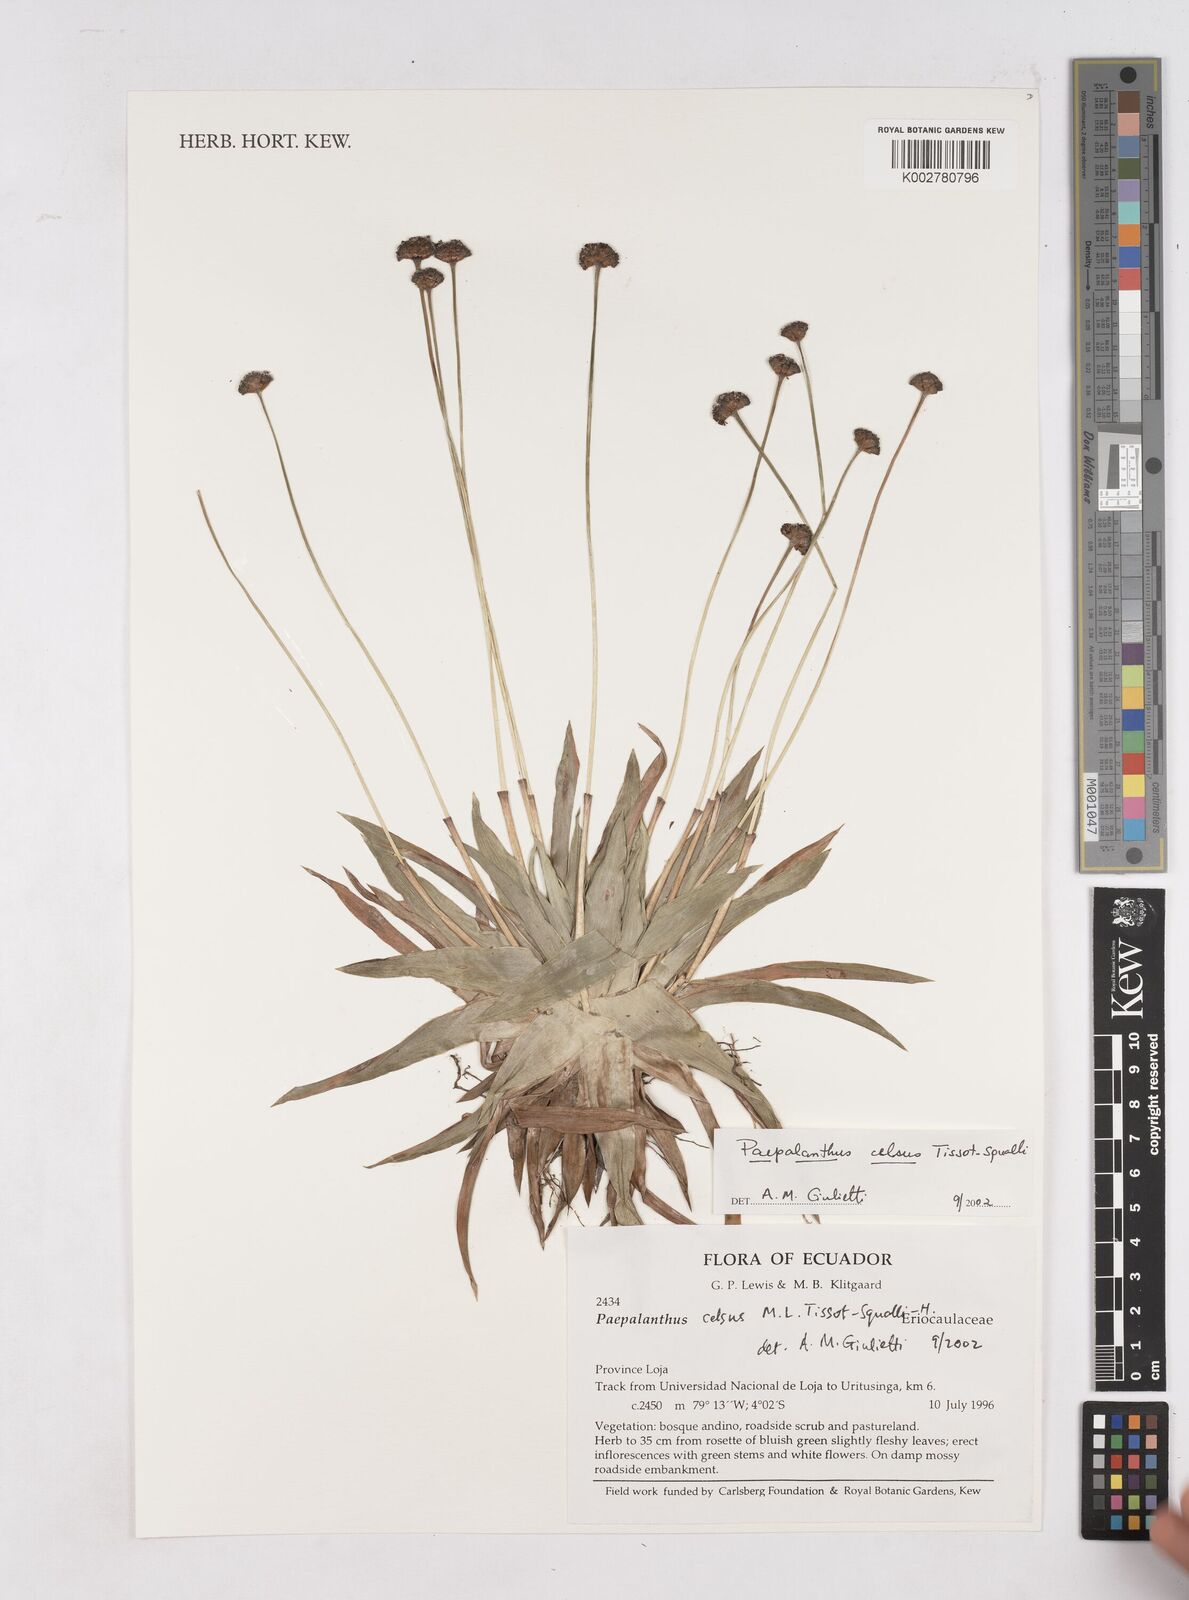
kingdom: Plantae
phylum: Tracheophyta
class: Liliopsida
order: Poales
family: Eriocaulaceae
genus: Paepalanthus
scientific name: Paepalanthus celsus
